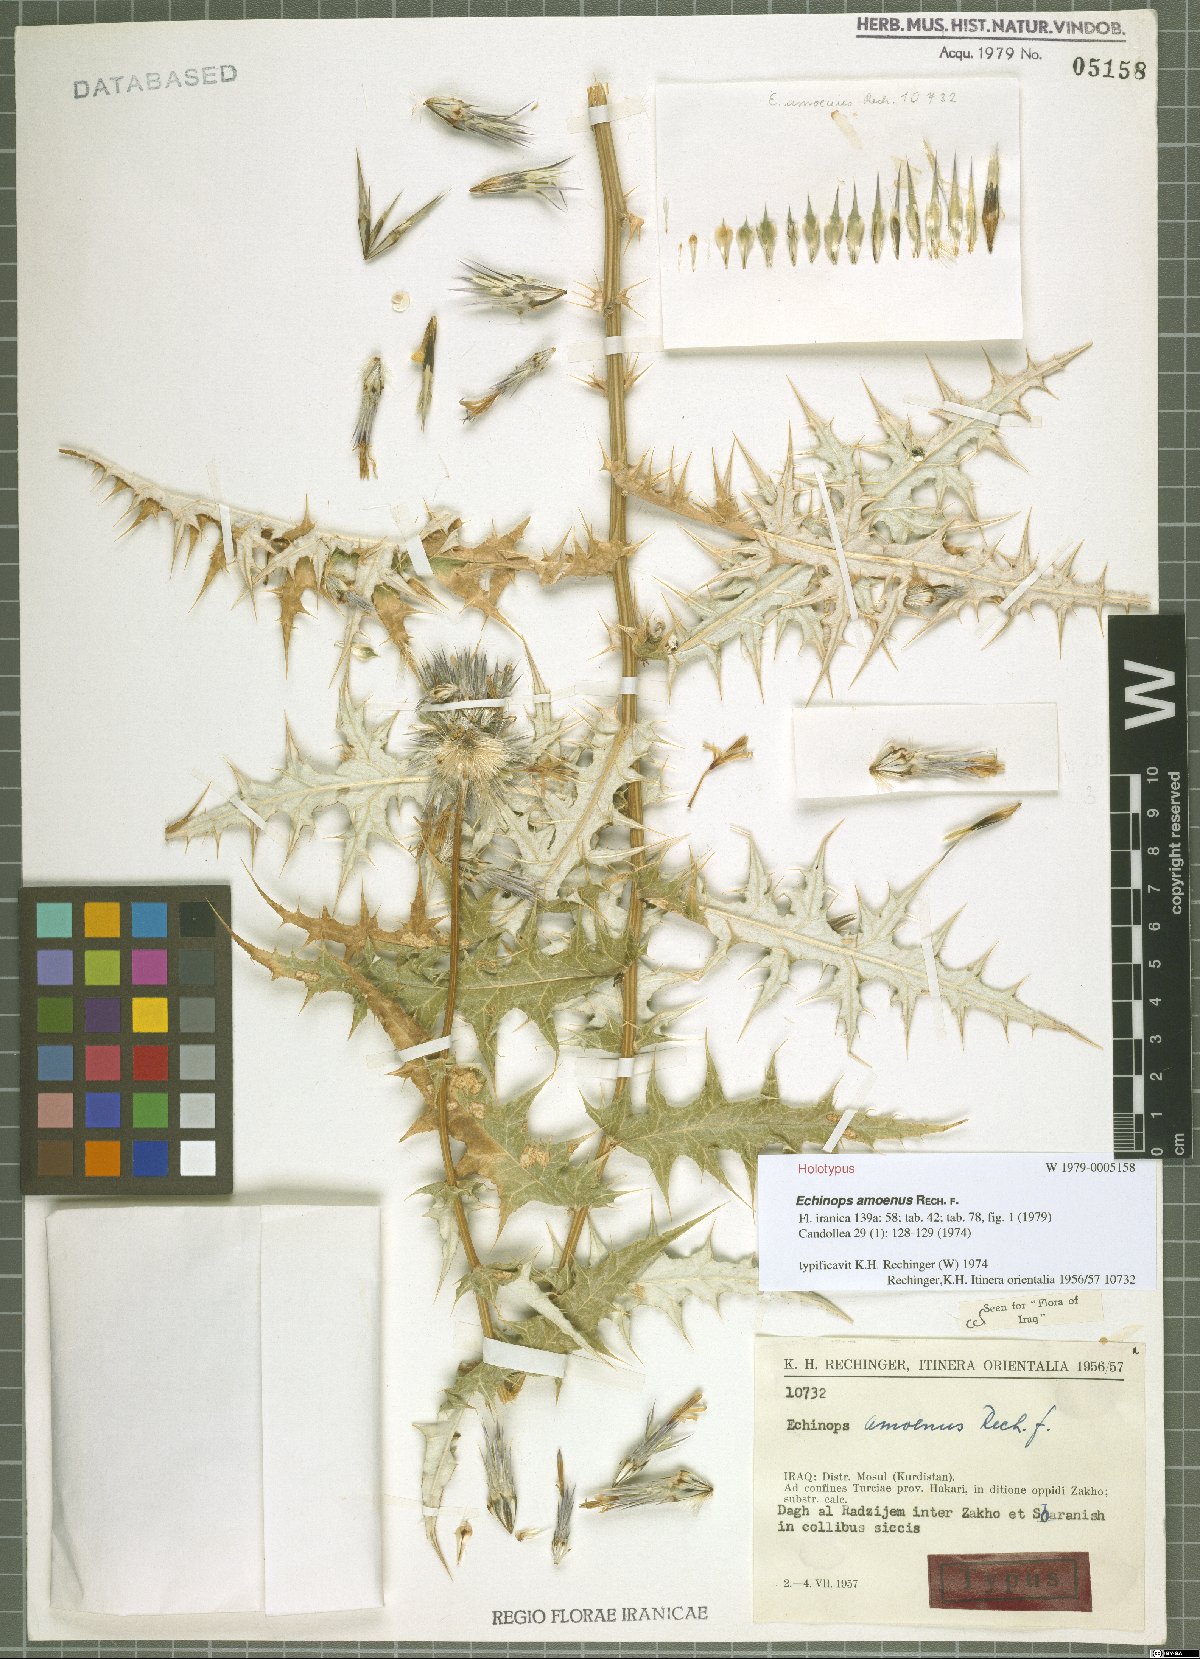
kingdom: Plantae
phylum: Tracheophyta
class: Magnoliopsida
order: Asterales
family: Asteraceae
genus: Echinops
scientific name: Echinops amoenus
